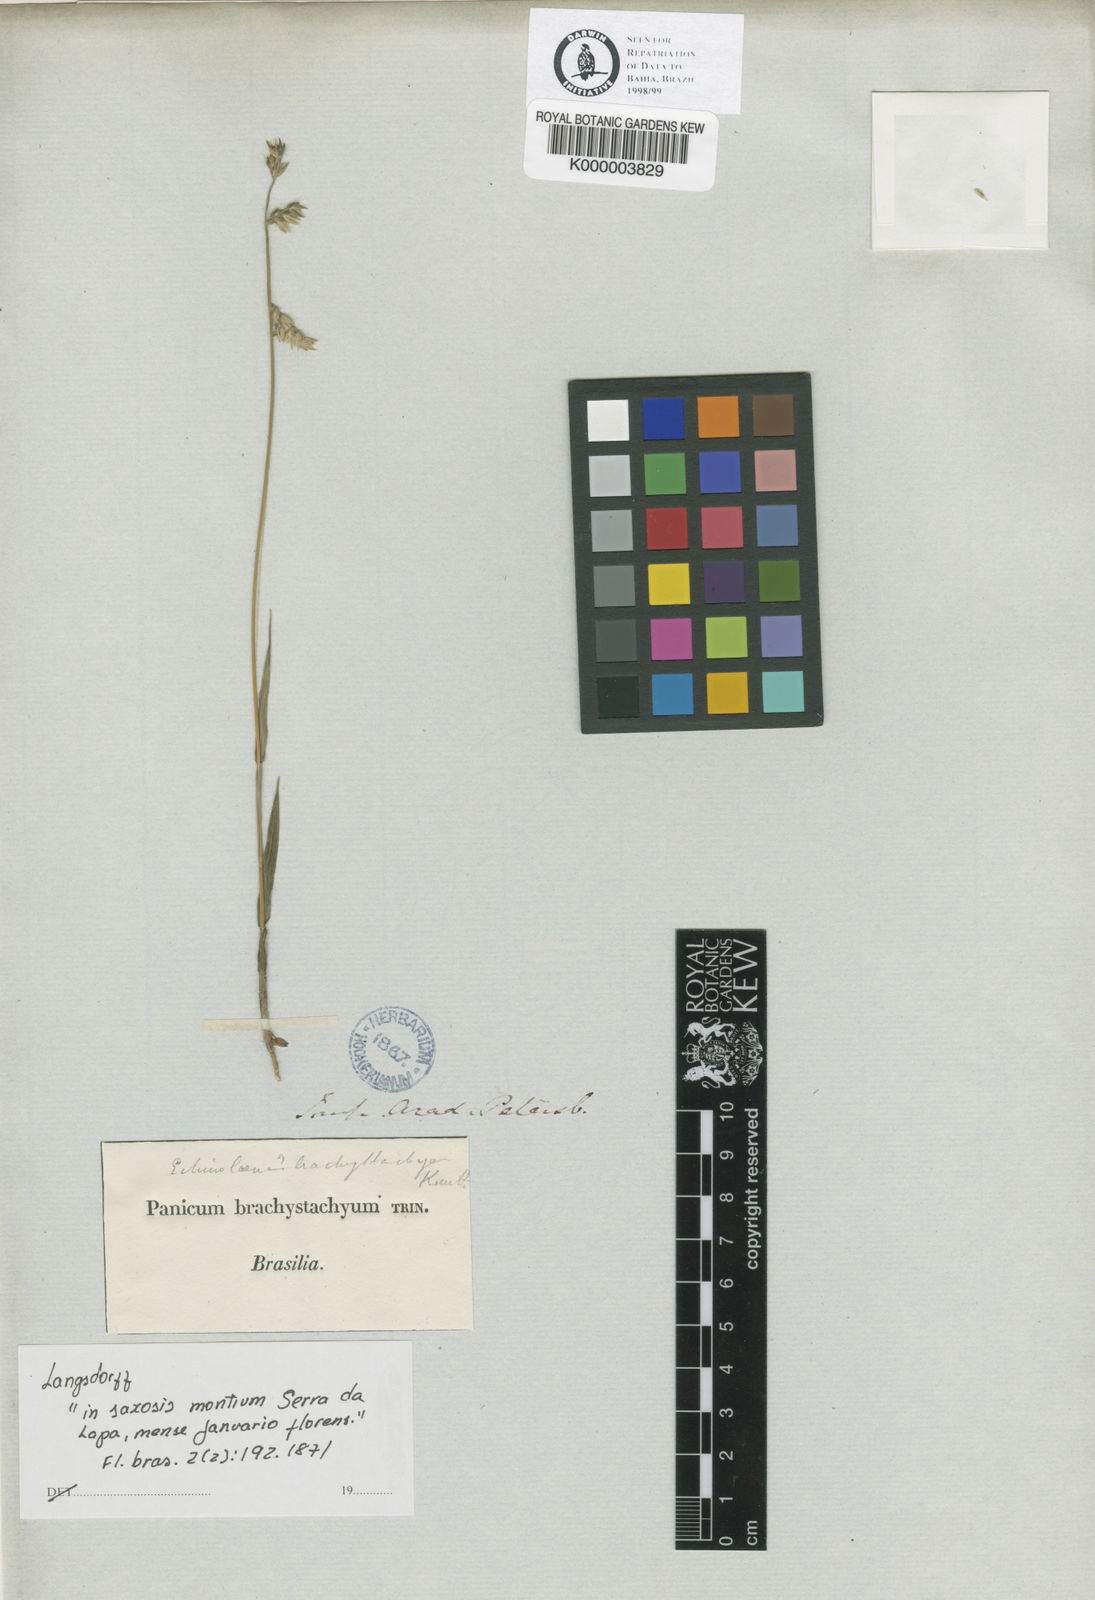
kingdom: Plantae
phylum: Tracheophyta
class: Liliopsida
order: Poales
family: Poaceae
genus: Echinolaena
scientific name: Echinolaena
